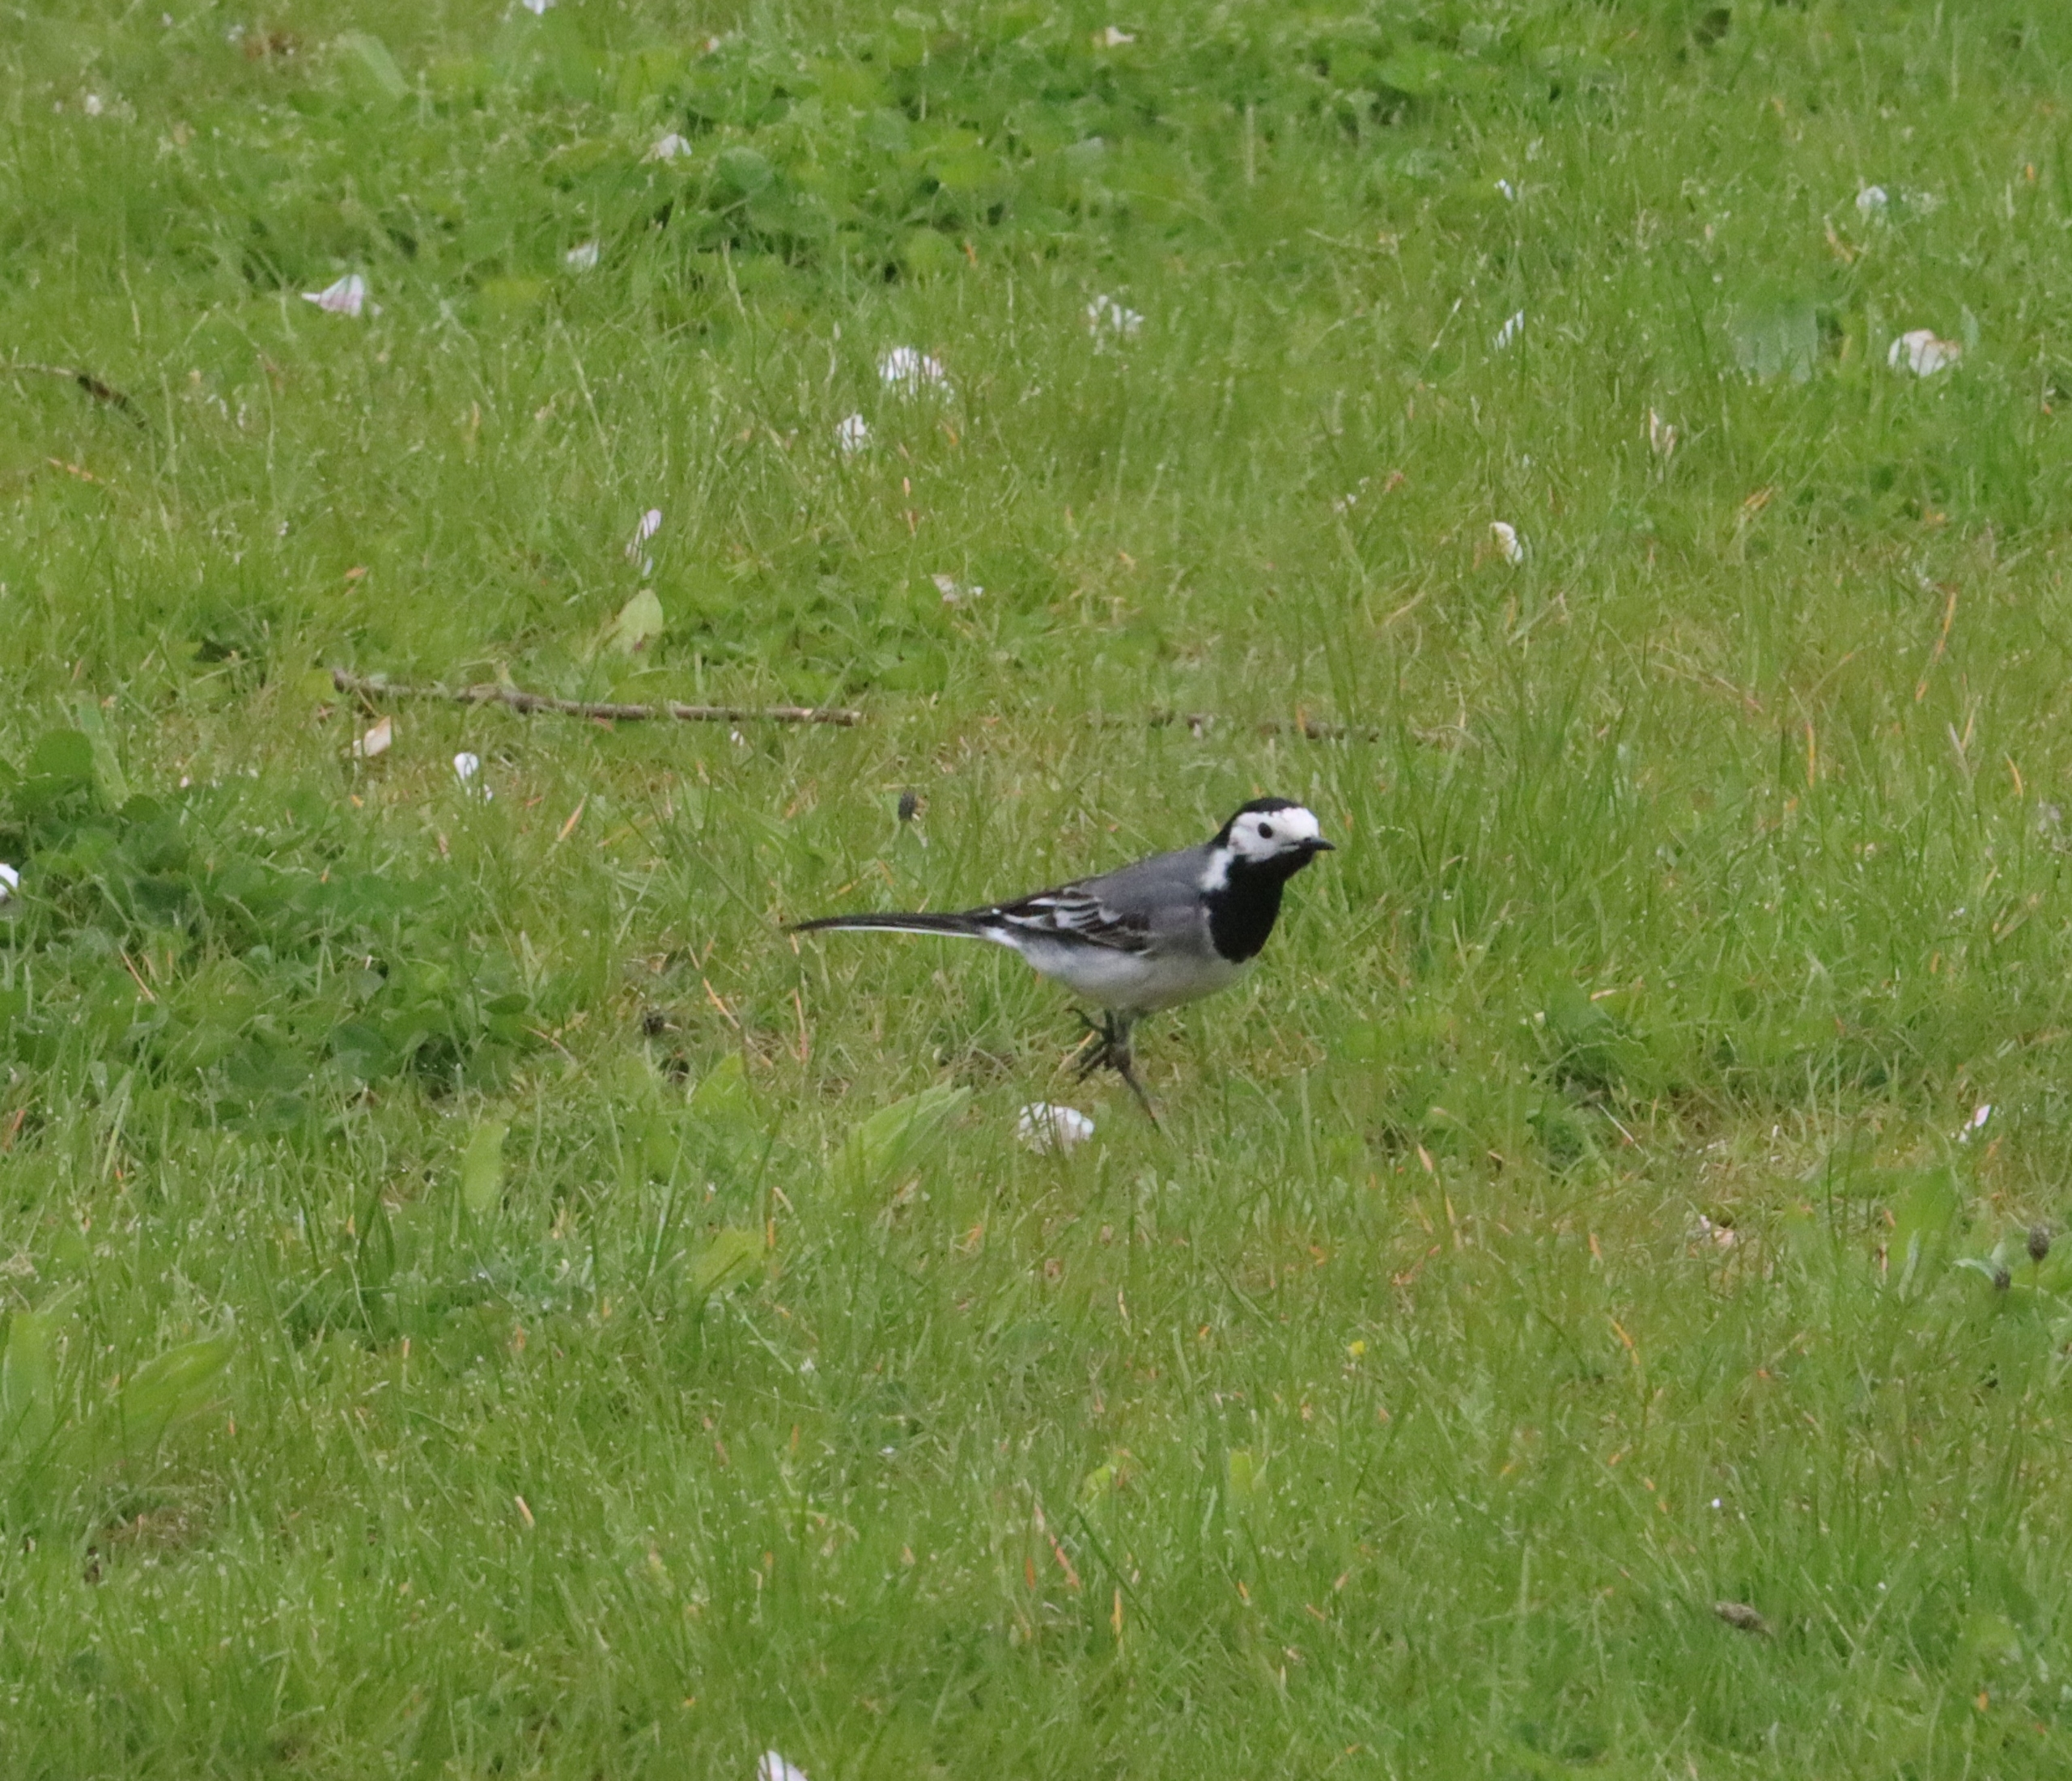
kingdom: Animalia
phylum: Chordata
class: Aves
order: Passeriformes
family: Motacillidae
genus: Motacilla
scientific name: Motacilla alba
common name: Hvid vipstjert
